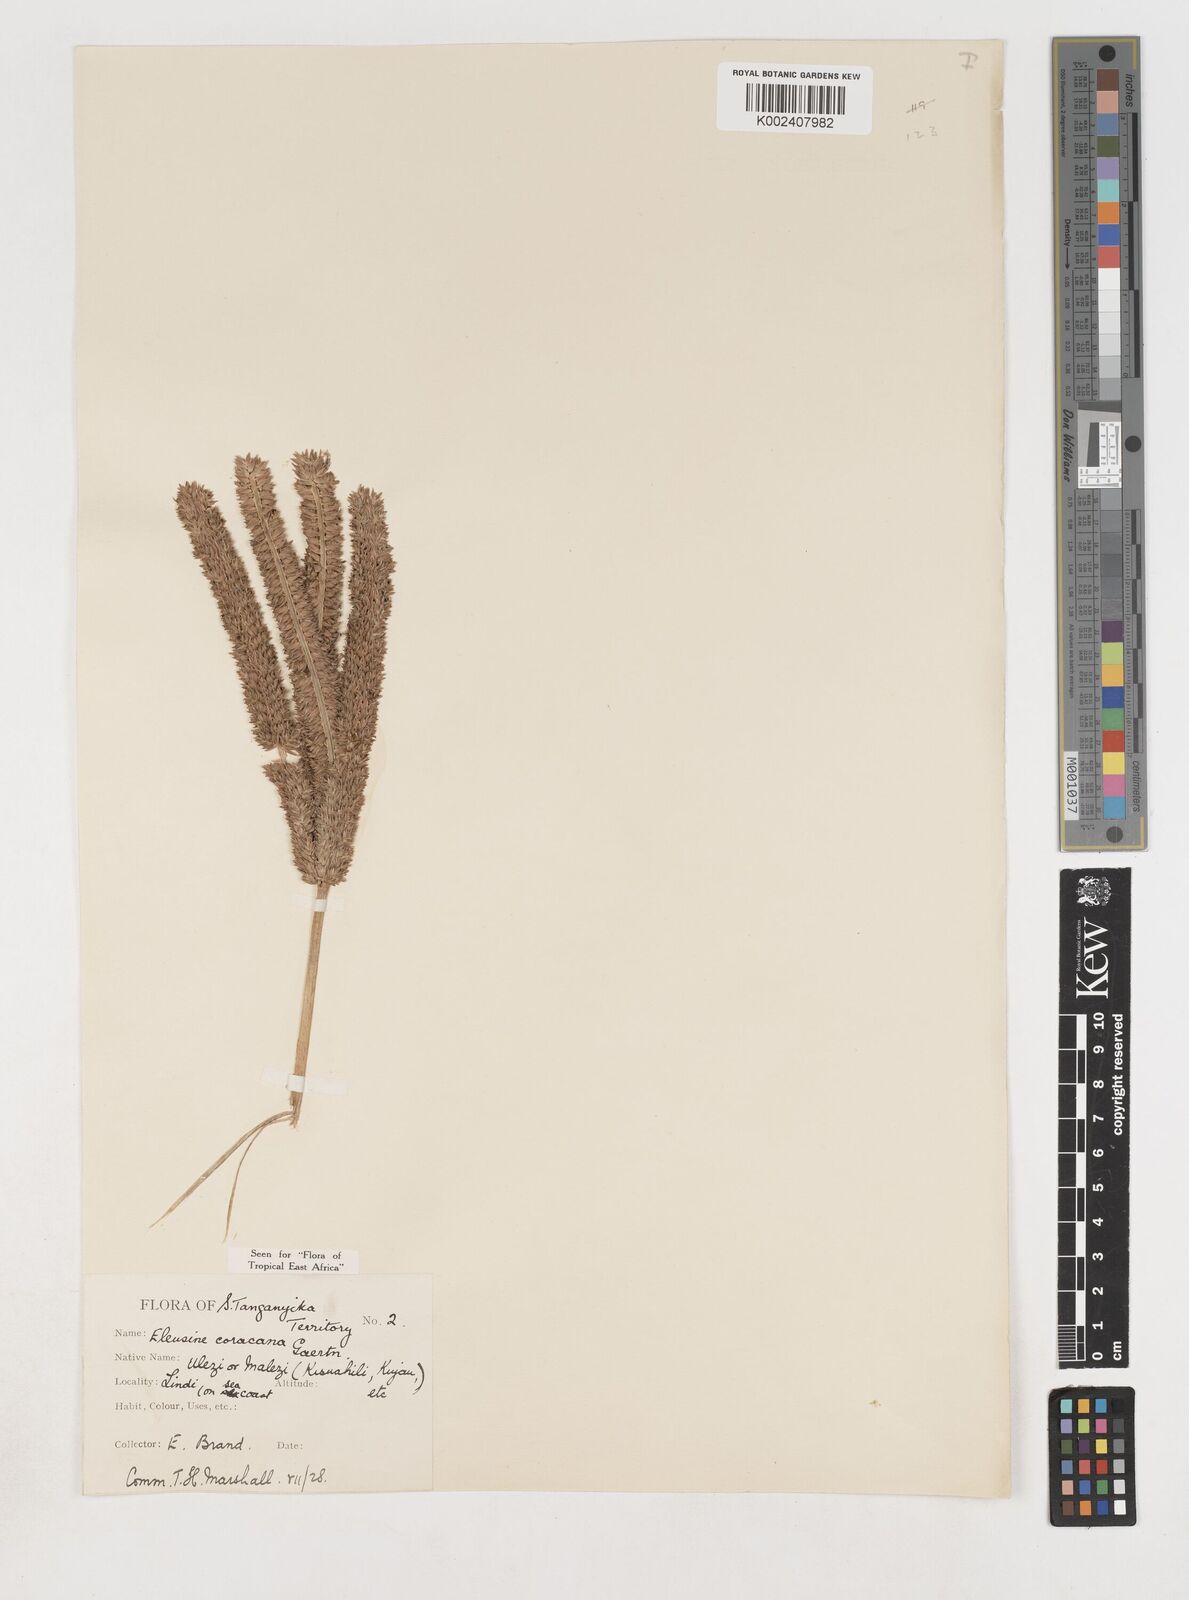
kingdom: Plantae
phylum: Tracheophyta
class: Liliopsida
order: Poales
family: Poaceae
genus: Eleusine
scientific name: Eleusine coracana
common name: Finger millet
